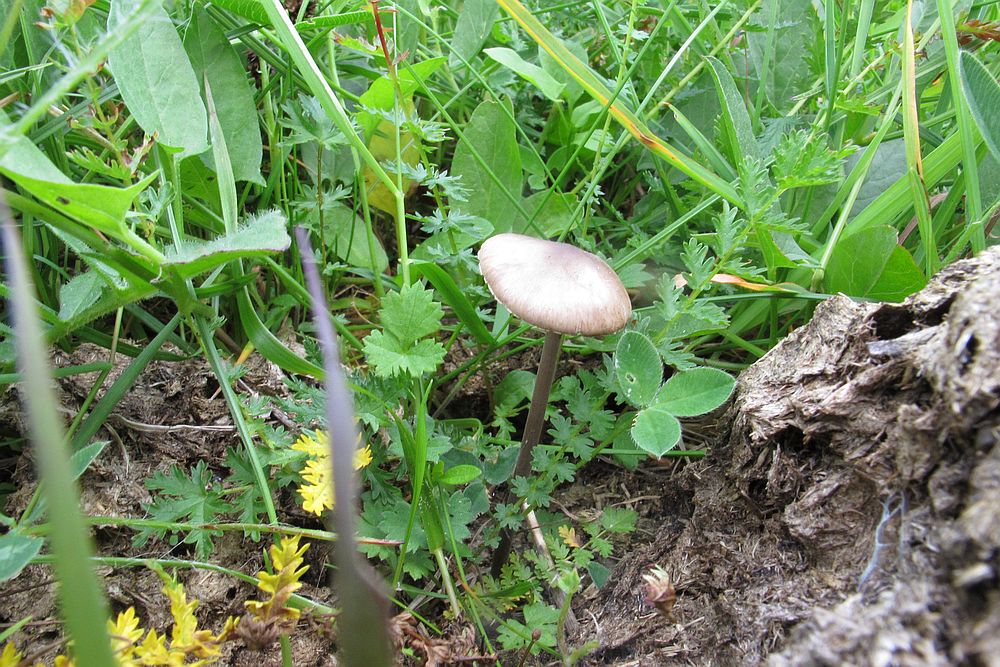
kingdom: Fungi
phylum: Basidiomycota
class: Agaricomycetes
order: Agaricales
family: Bolbitiaceae
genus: Panaeolus
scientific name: Panaeolus papilionaceus
